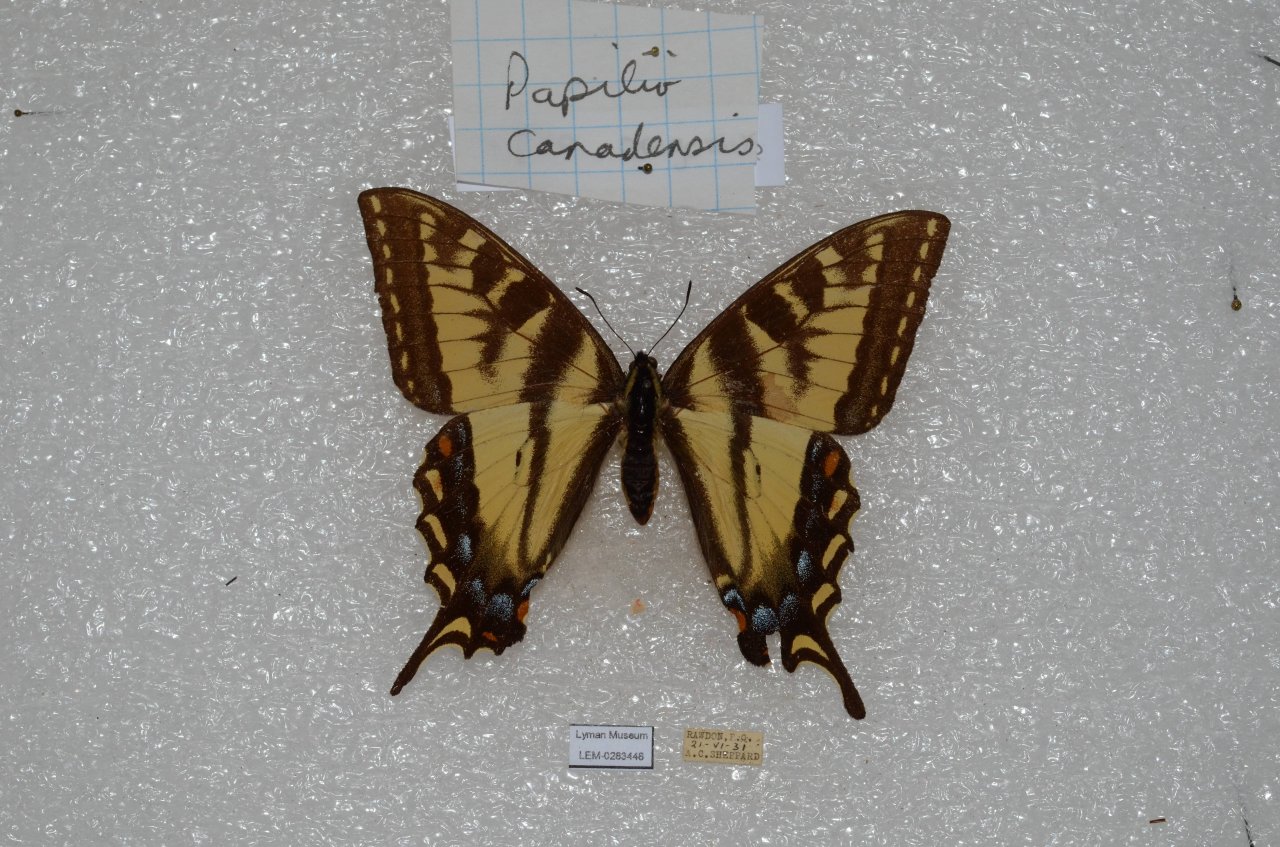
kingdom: Animalia
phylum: Arthropoda
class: Insecta
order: Lepidoptera
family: Papilionidae
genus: Pterourus
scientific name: Pterourus canadensis
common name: Canadian Tiger Swallowtail
